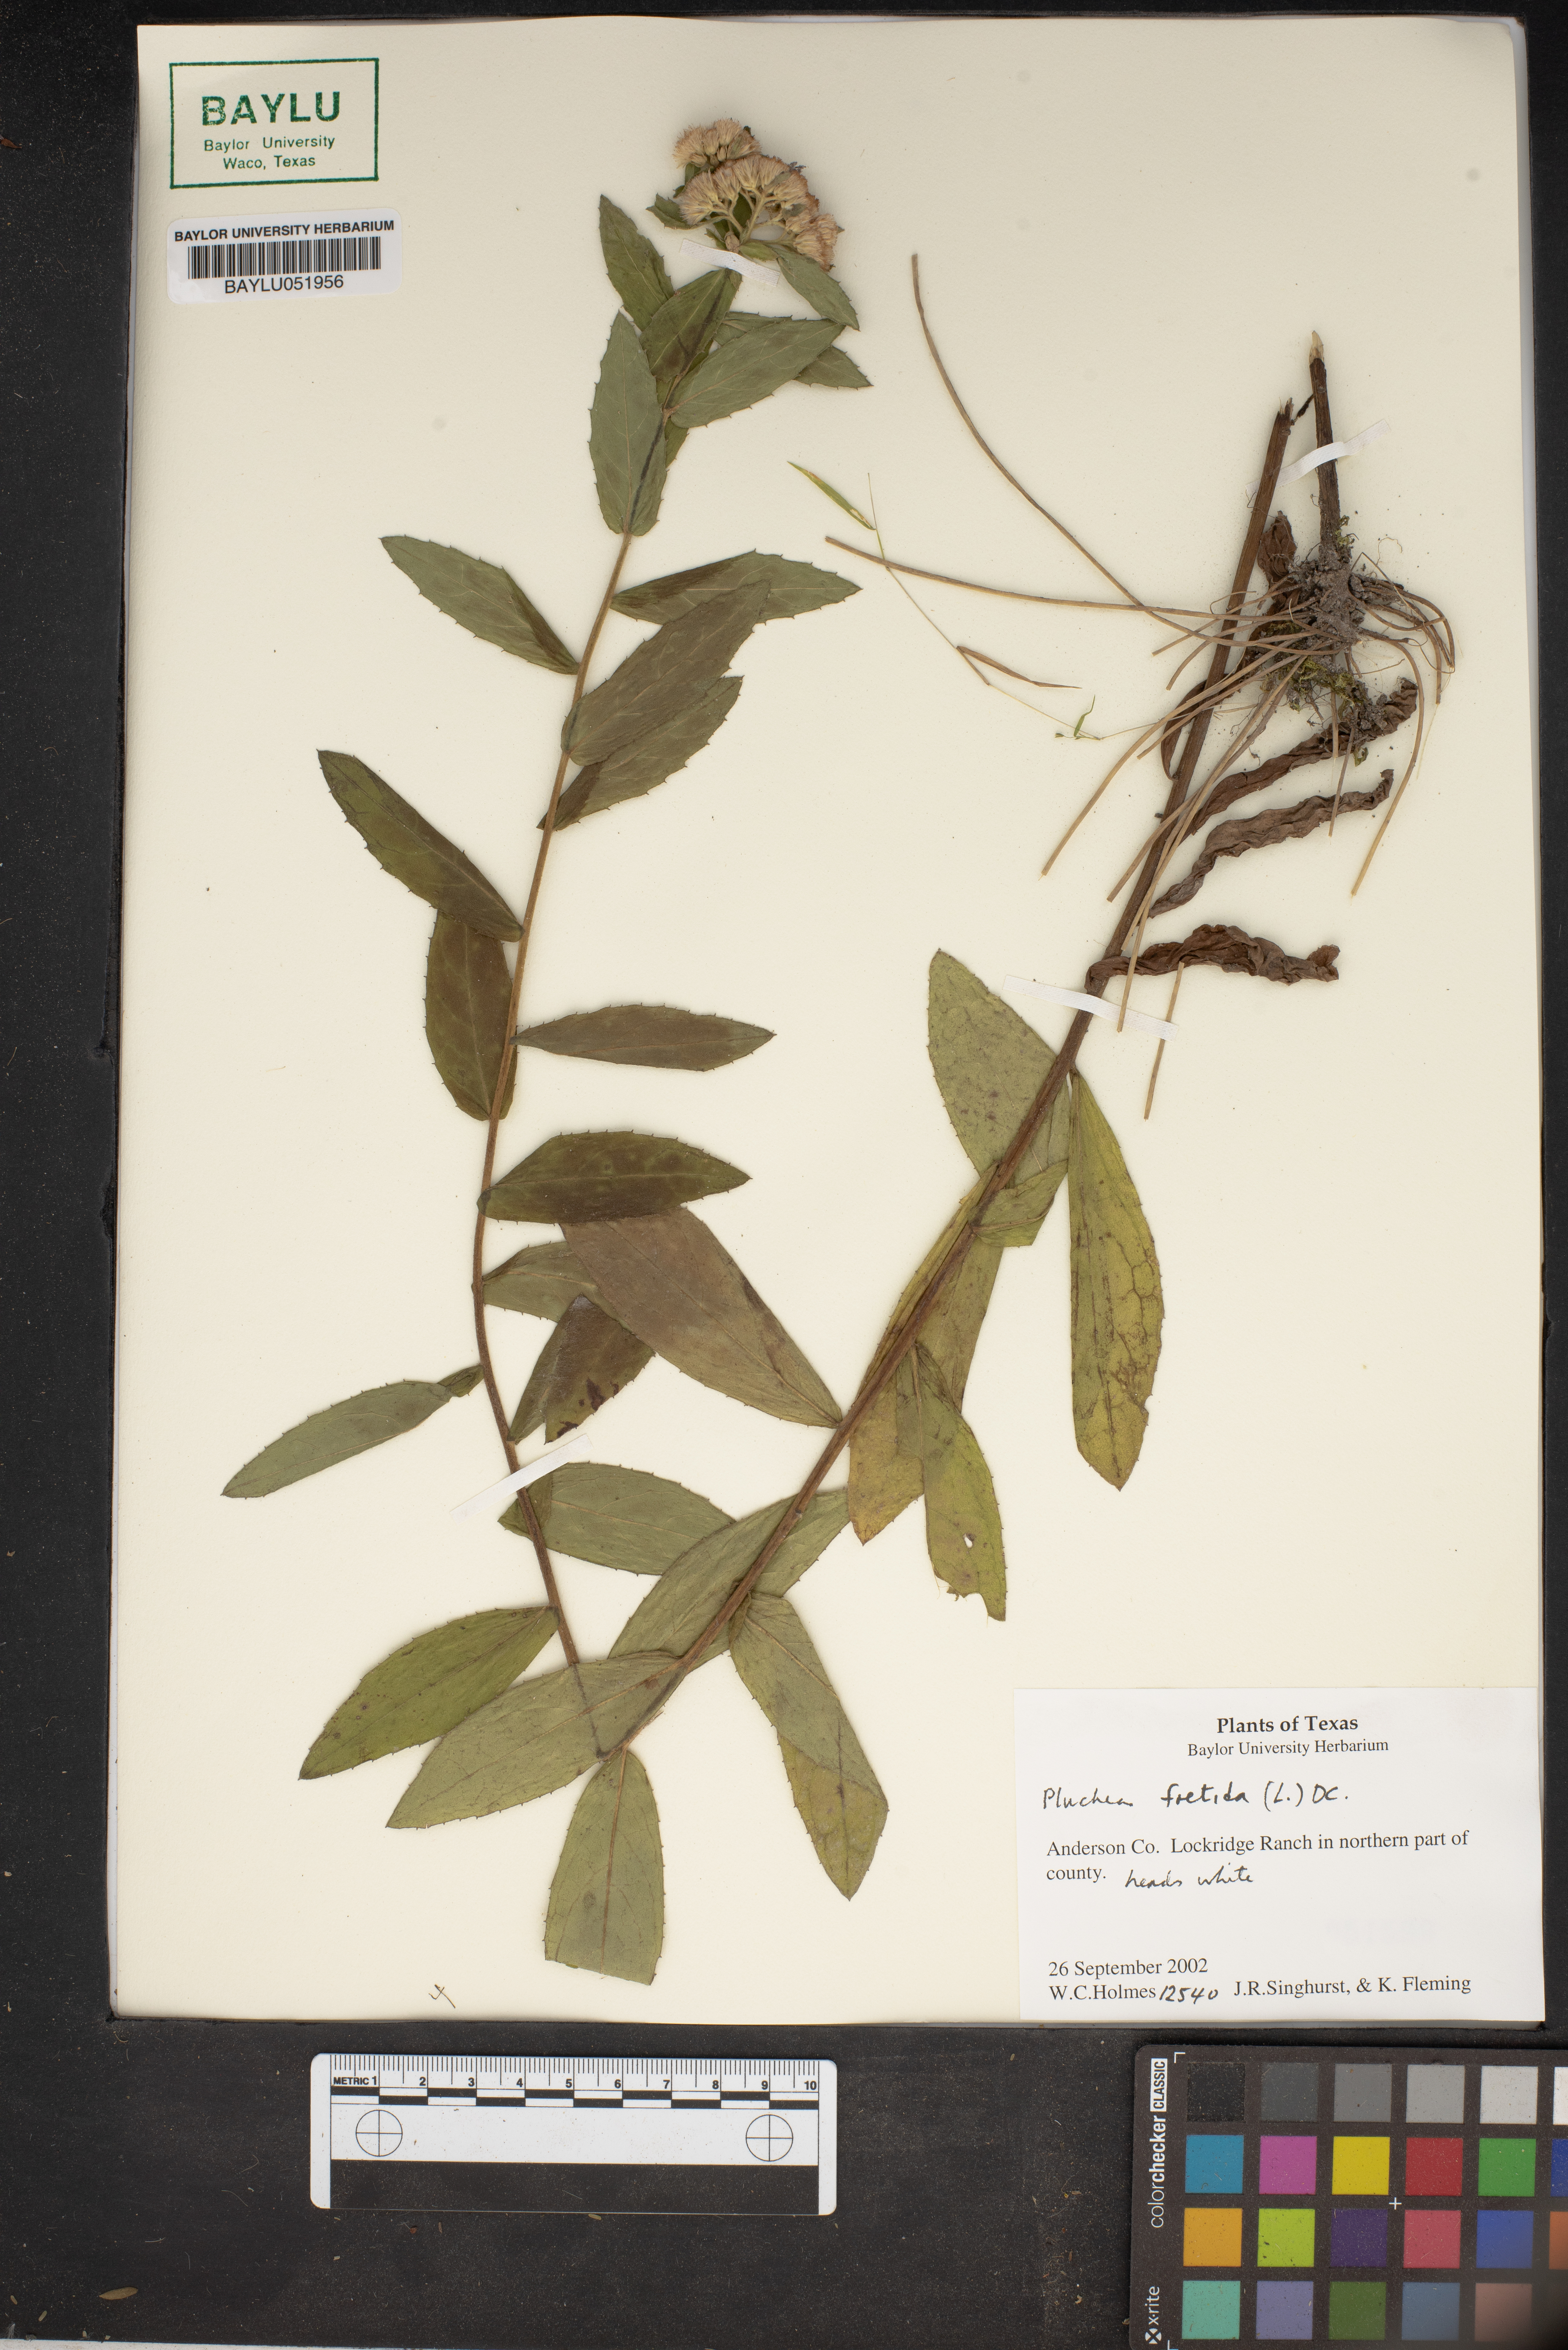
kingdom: Plantae
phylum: Tracheophyta
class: Magnoliopsida
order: Asterales
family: Asteraceae
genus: Pluchea
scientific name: Pluchea foetida
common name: Stinking camphorweed
